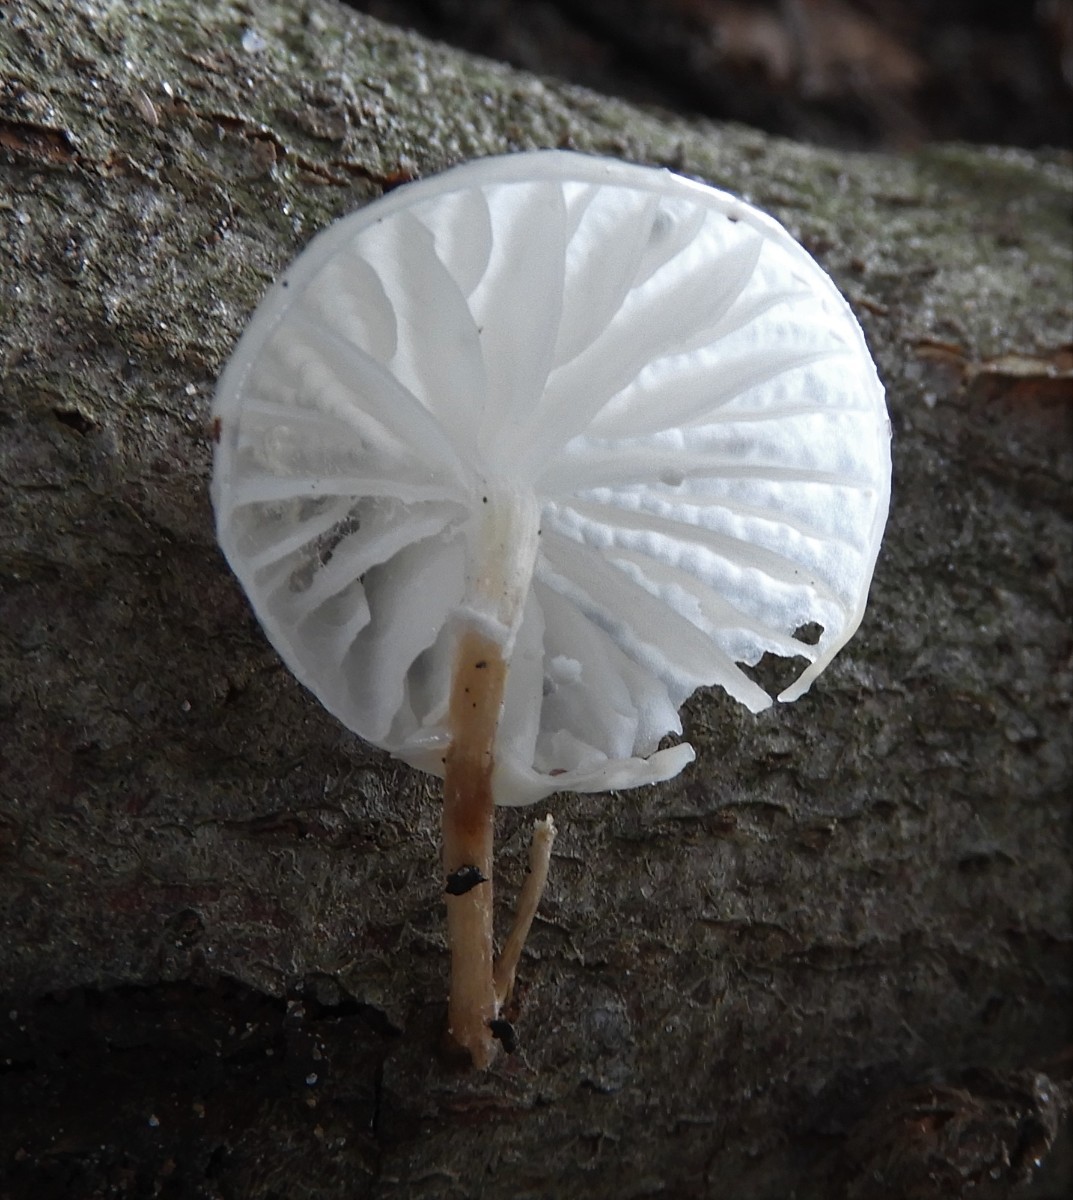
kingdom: Fungi
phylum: Basidiomycota
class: Agaricomycetes
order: Agaricales
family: Physalacriaceae
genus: Mucidula
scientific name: Mucidula mucida
